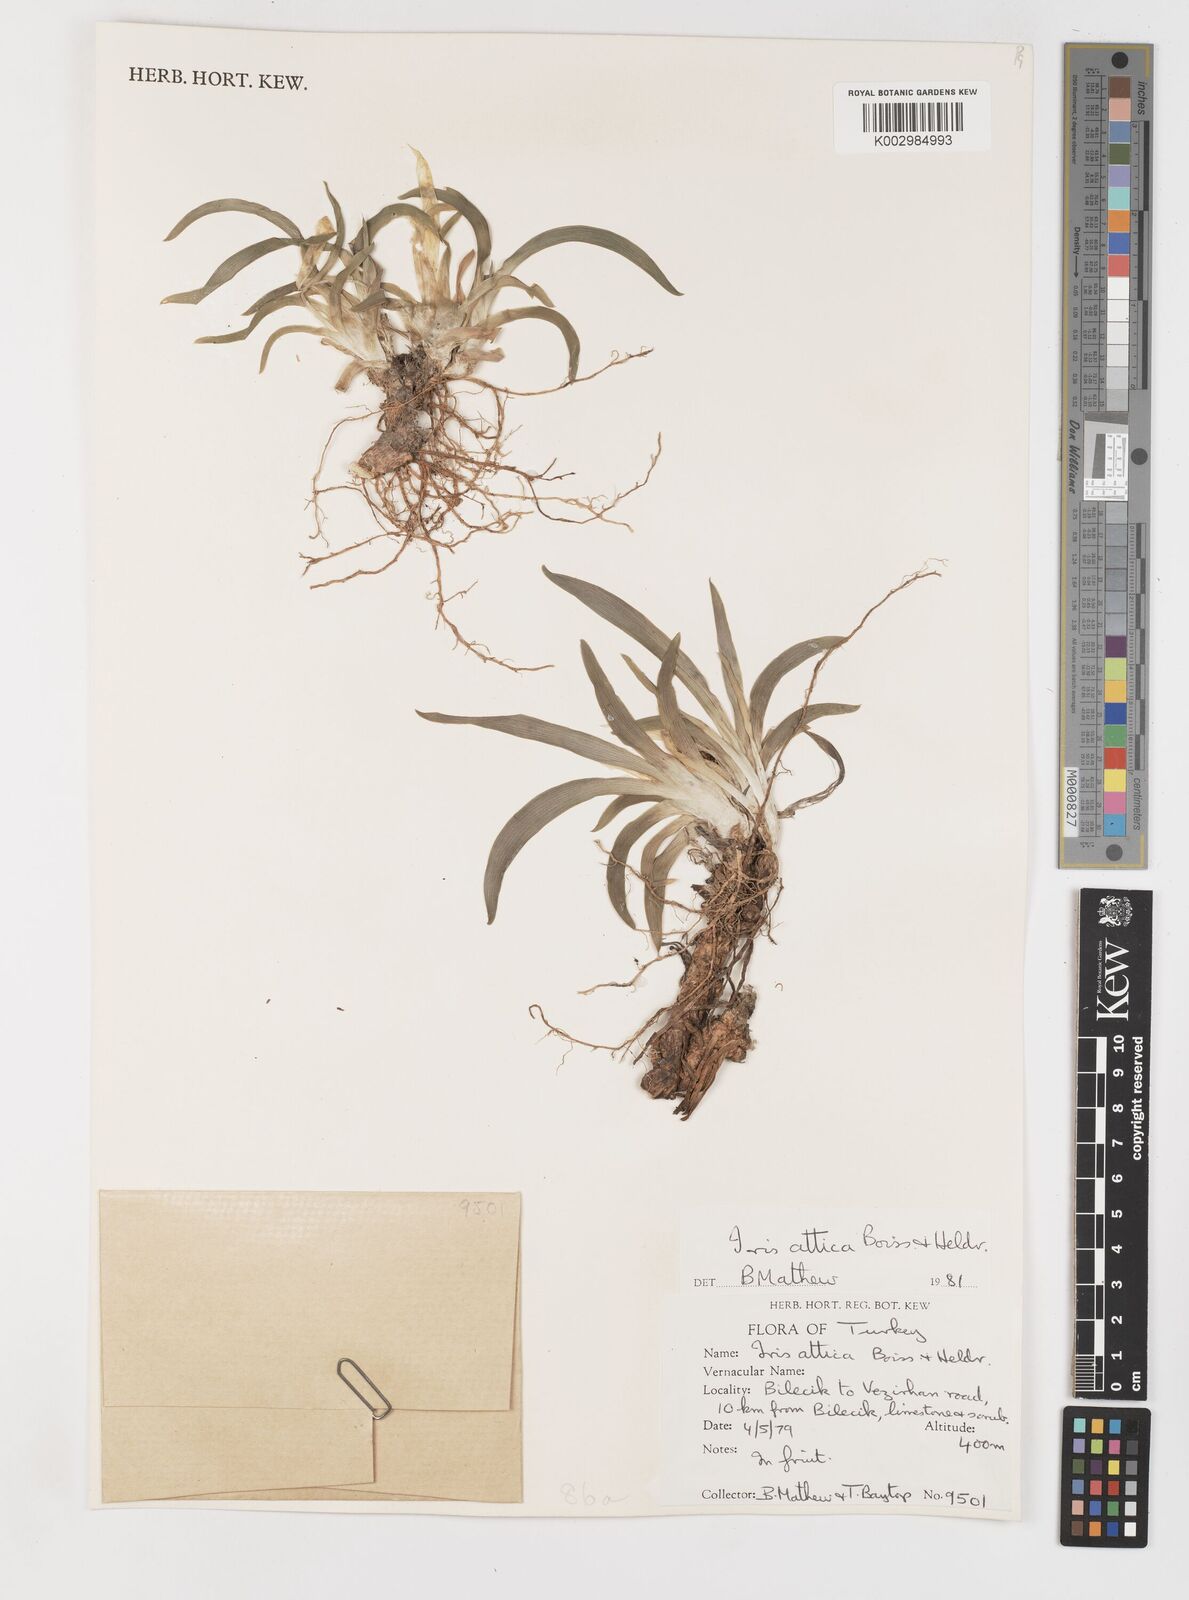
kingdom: Plantae
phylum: Tracheophyta
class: Liliopsida
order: Asparagales
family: Iridaceae
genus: Iris
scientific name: Iris pumila
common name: Dwarf iris
